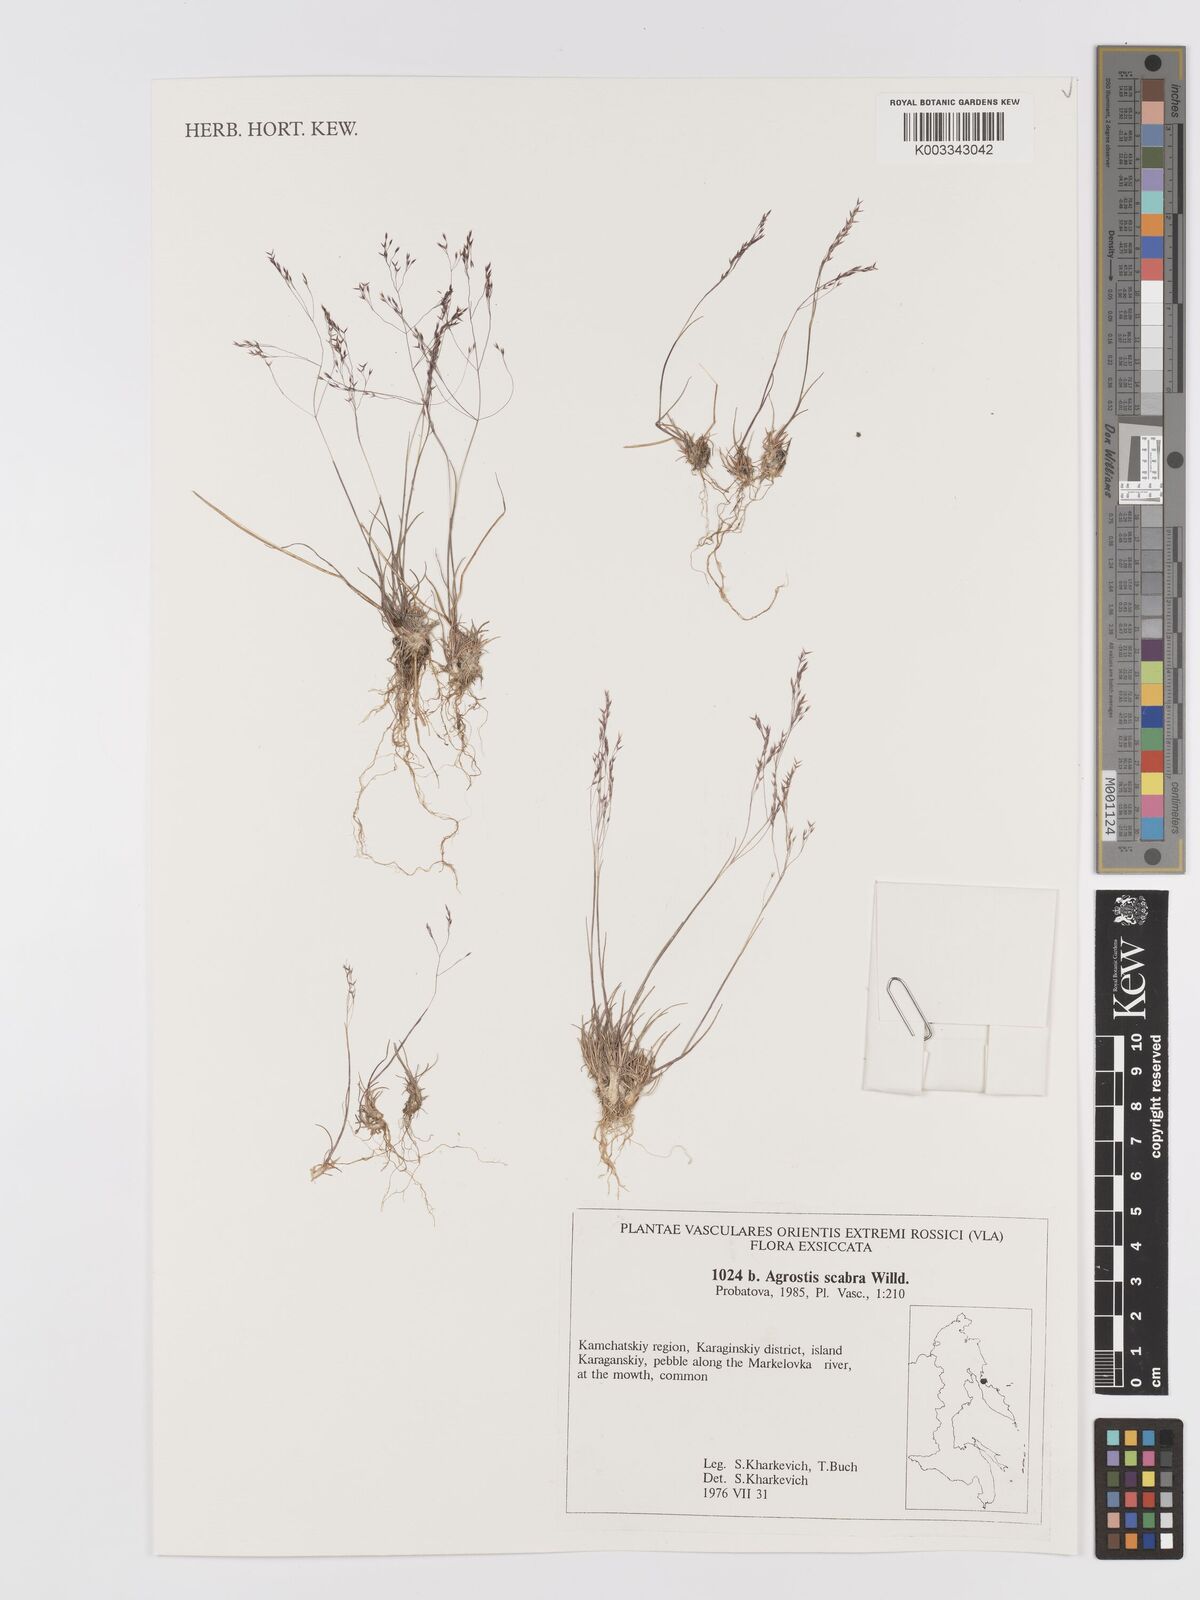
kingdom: Plantae
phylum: Tracheophyta
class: Liliopsida
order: Poales
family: Poaceae
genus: Agrostis
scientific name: Agrostis scabra
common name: Rough bent
